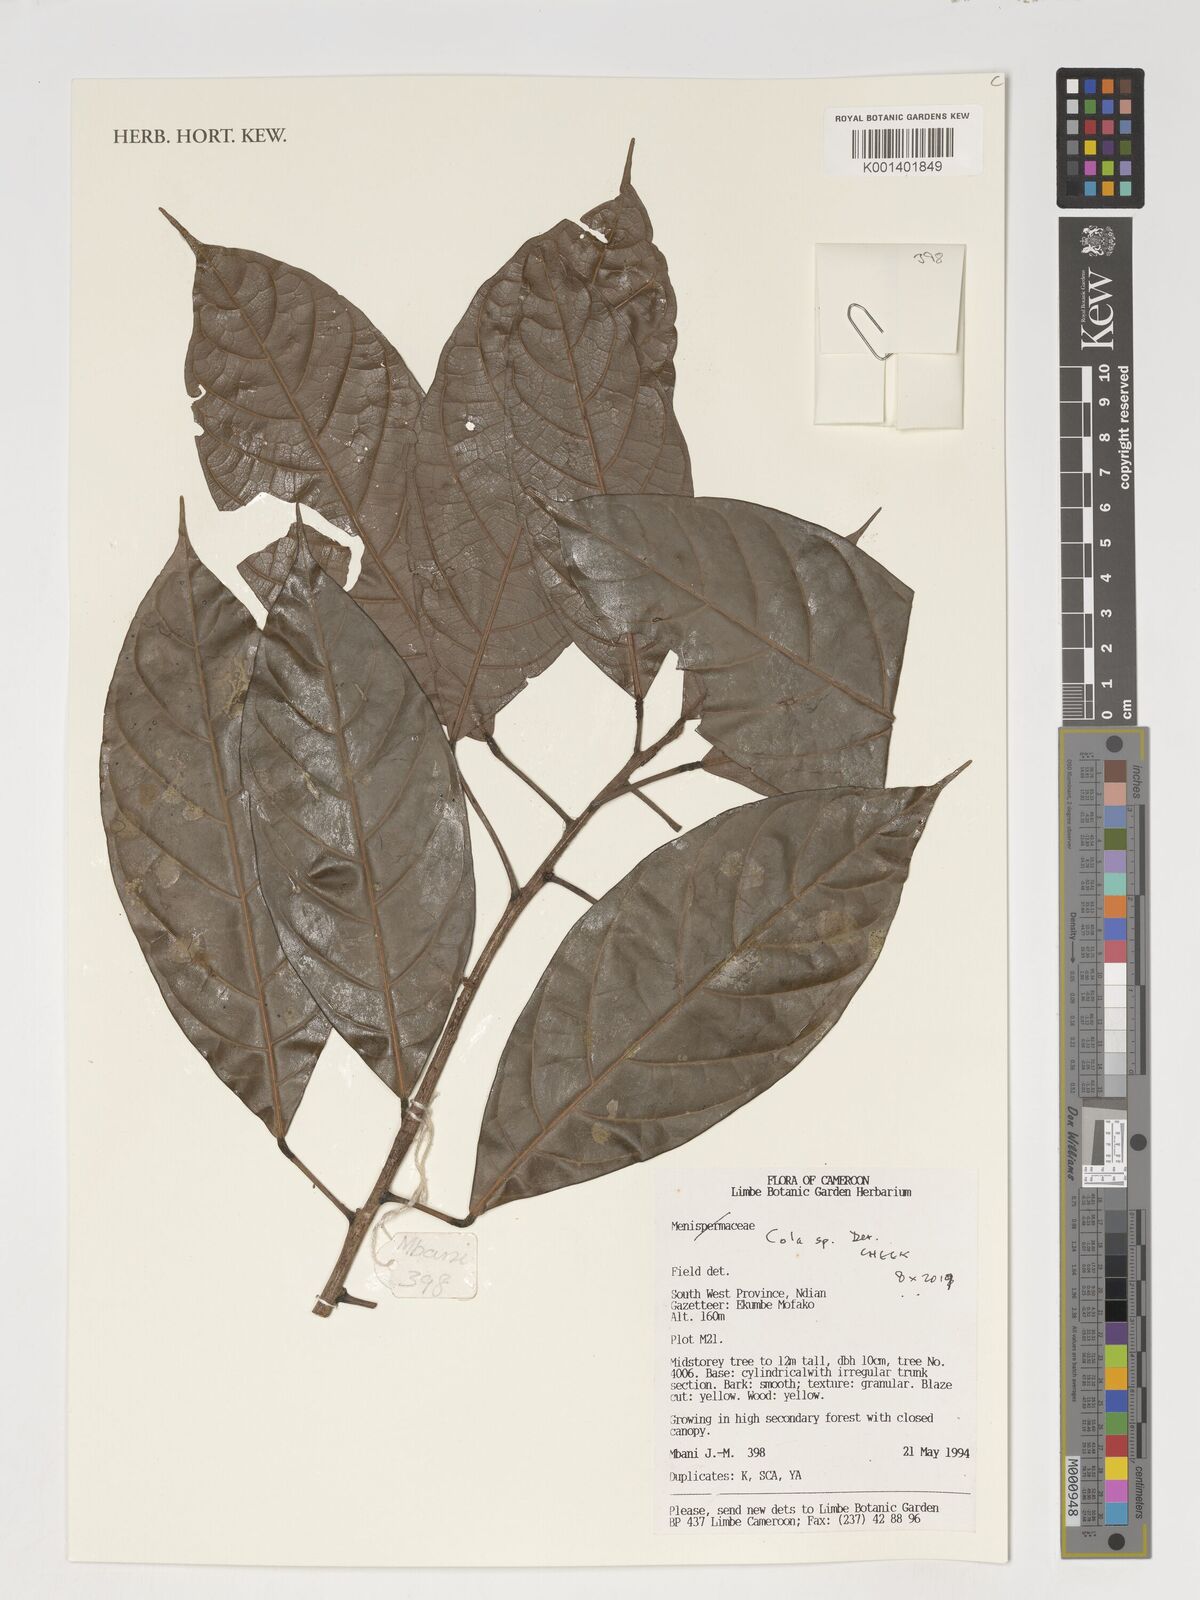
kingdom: Plantae
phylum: Tracheophyta
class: Magnoliopsida
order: Malvales
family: Malvaceae
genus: Cola
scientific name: Cola
